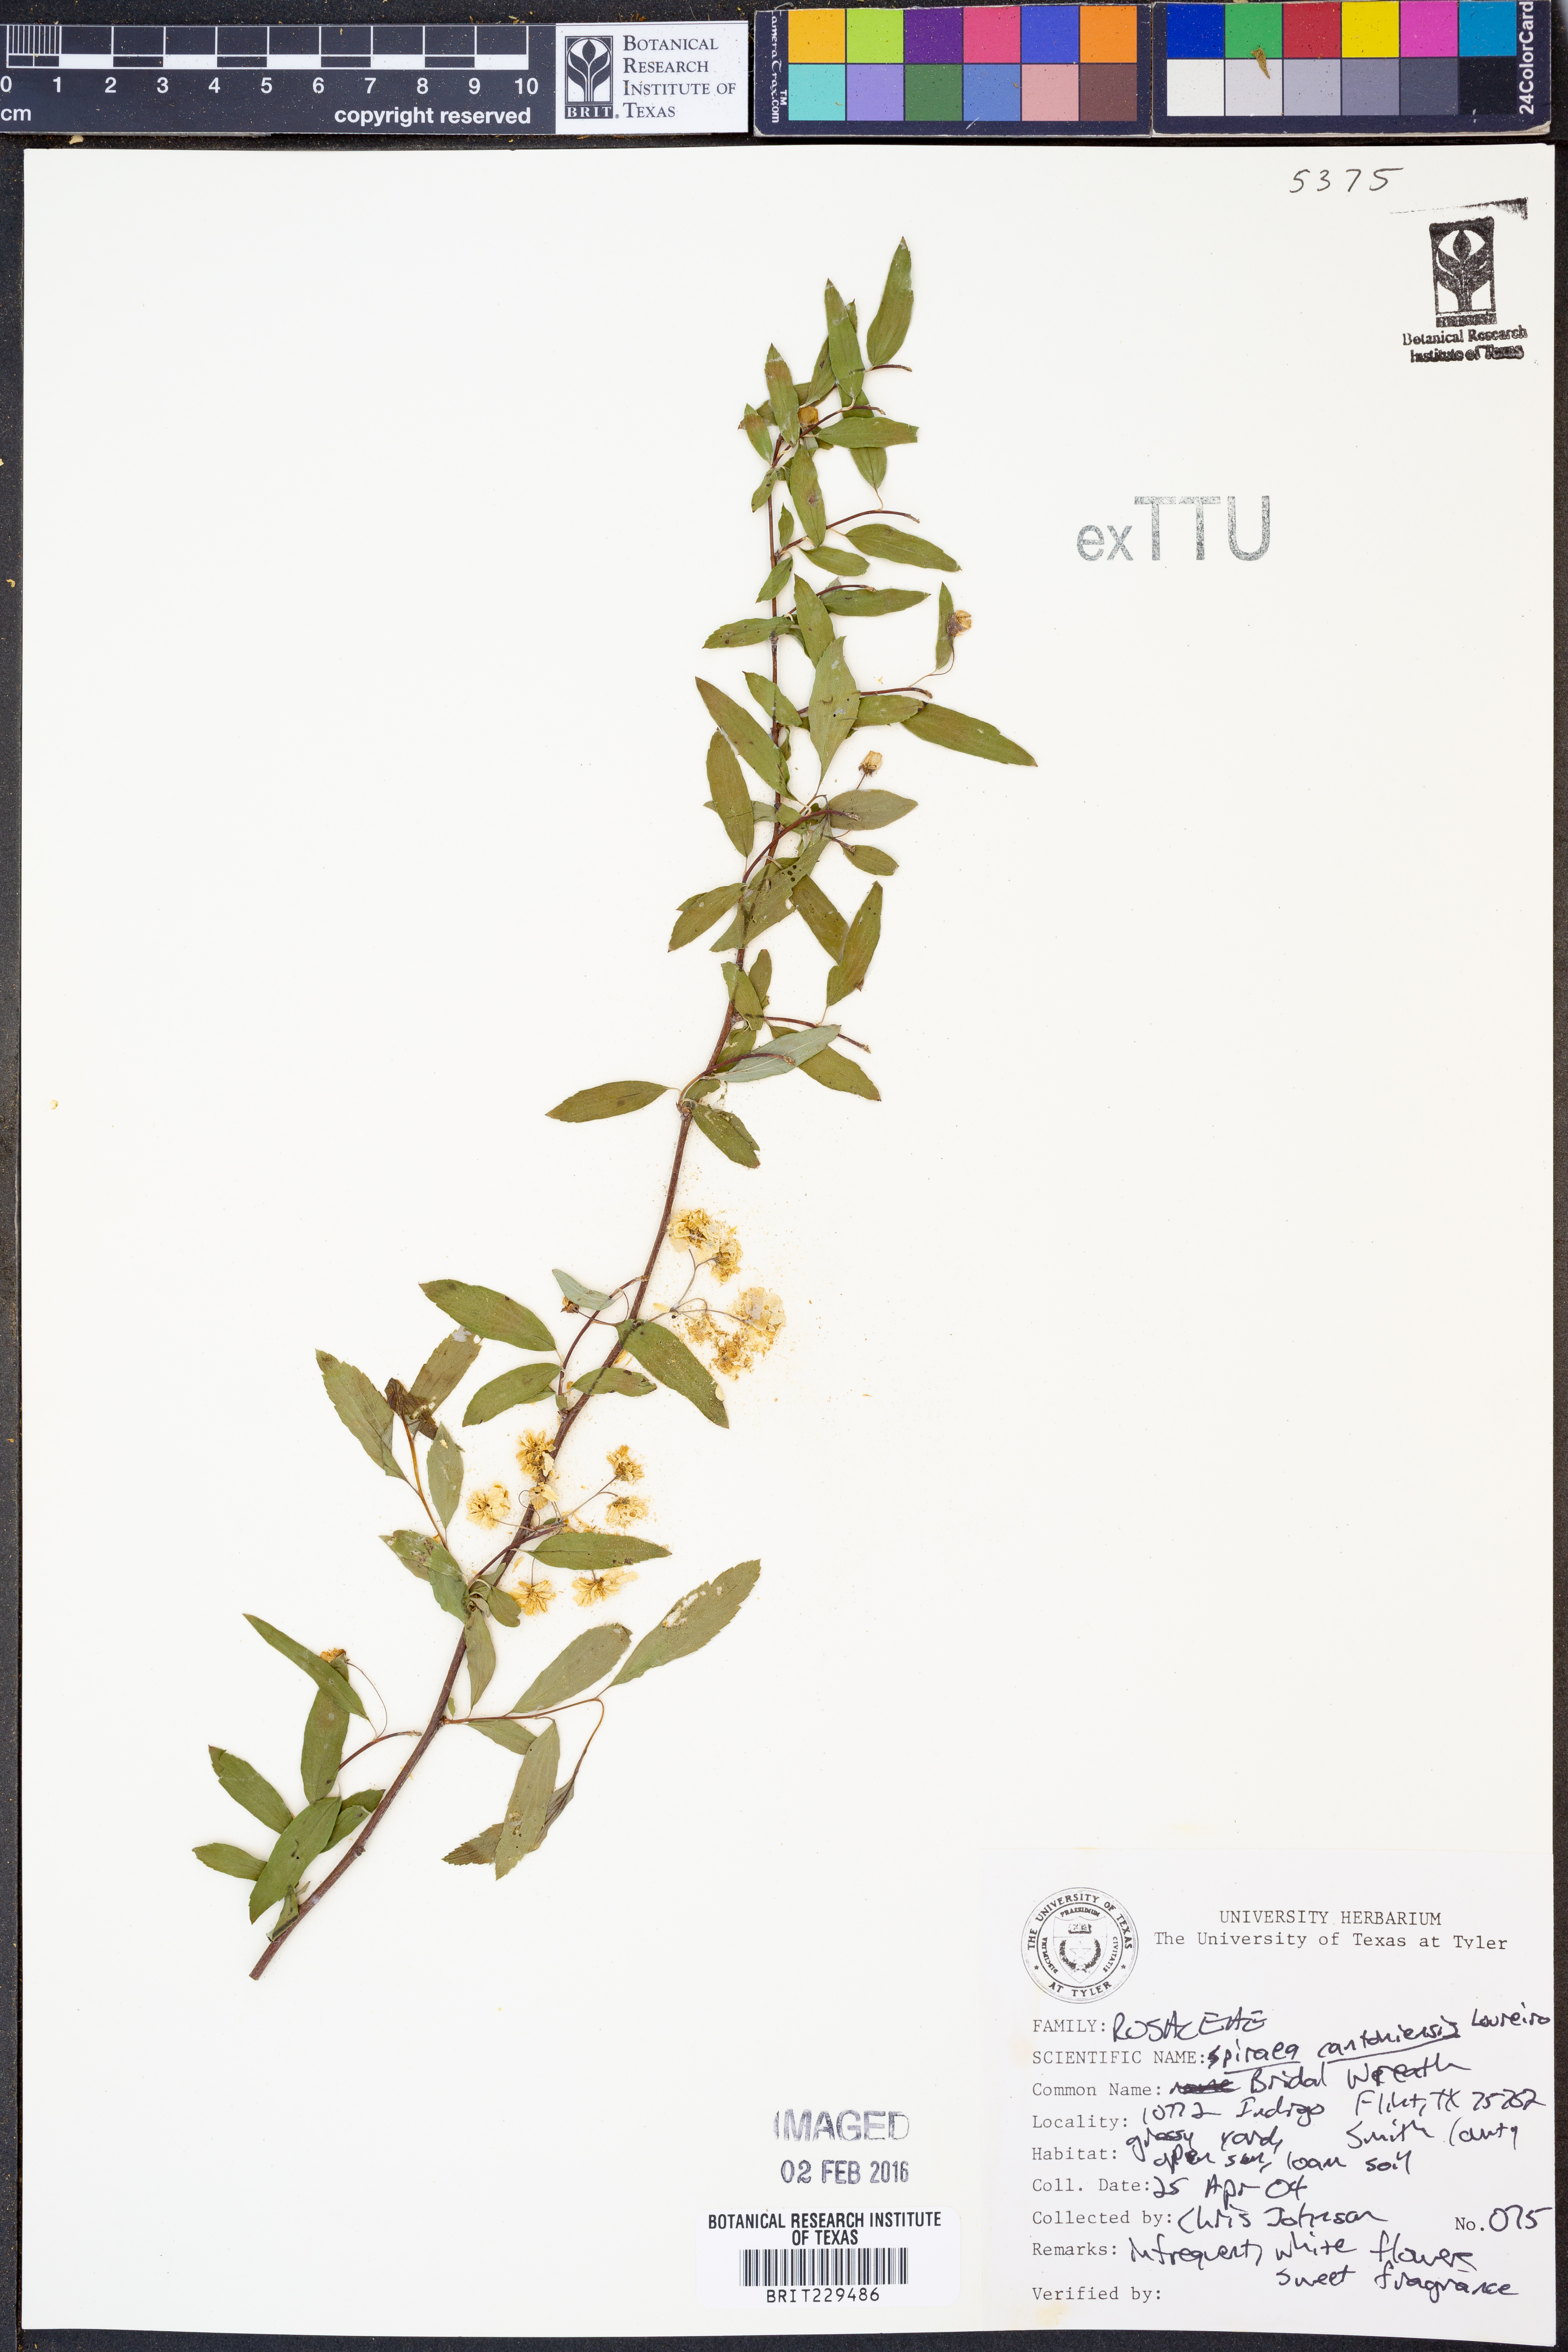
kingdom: Plantae
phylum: Tracheophyta
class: Magnoliopsida
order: Rosales
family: Rosaceae
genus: Spiraea
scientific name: Spiraea cantoniensis
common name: Reeves' meadowsweet
